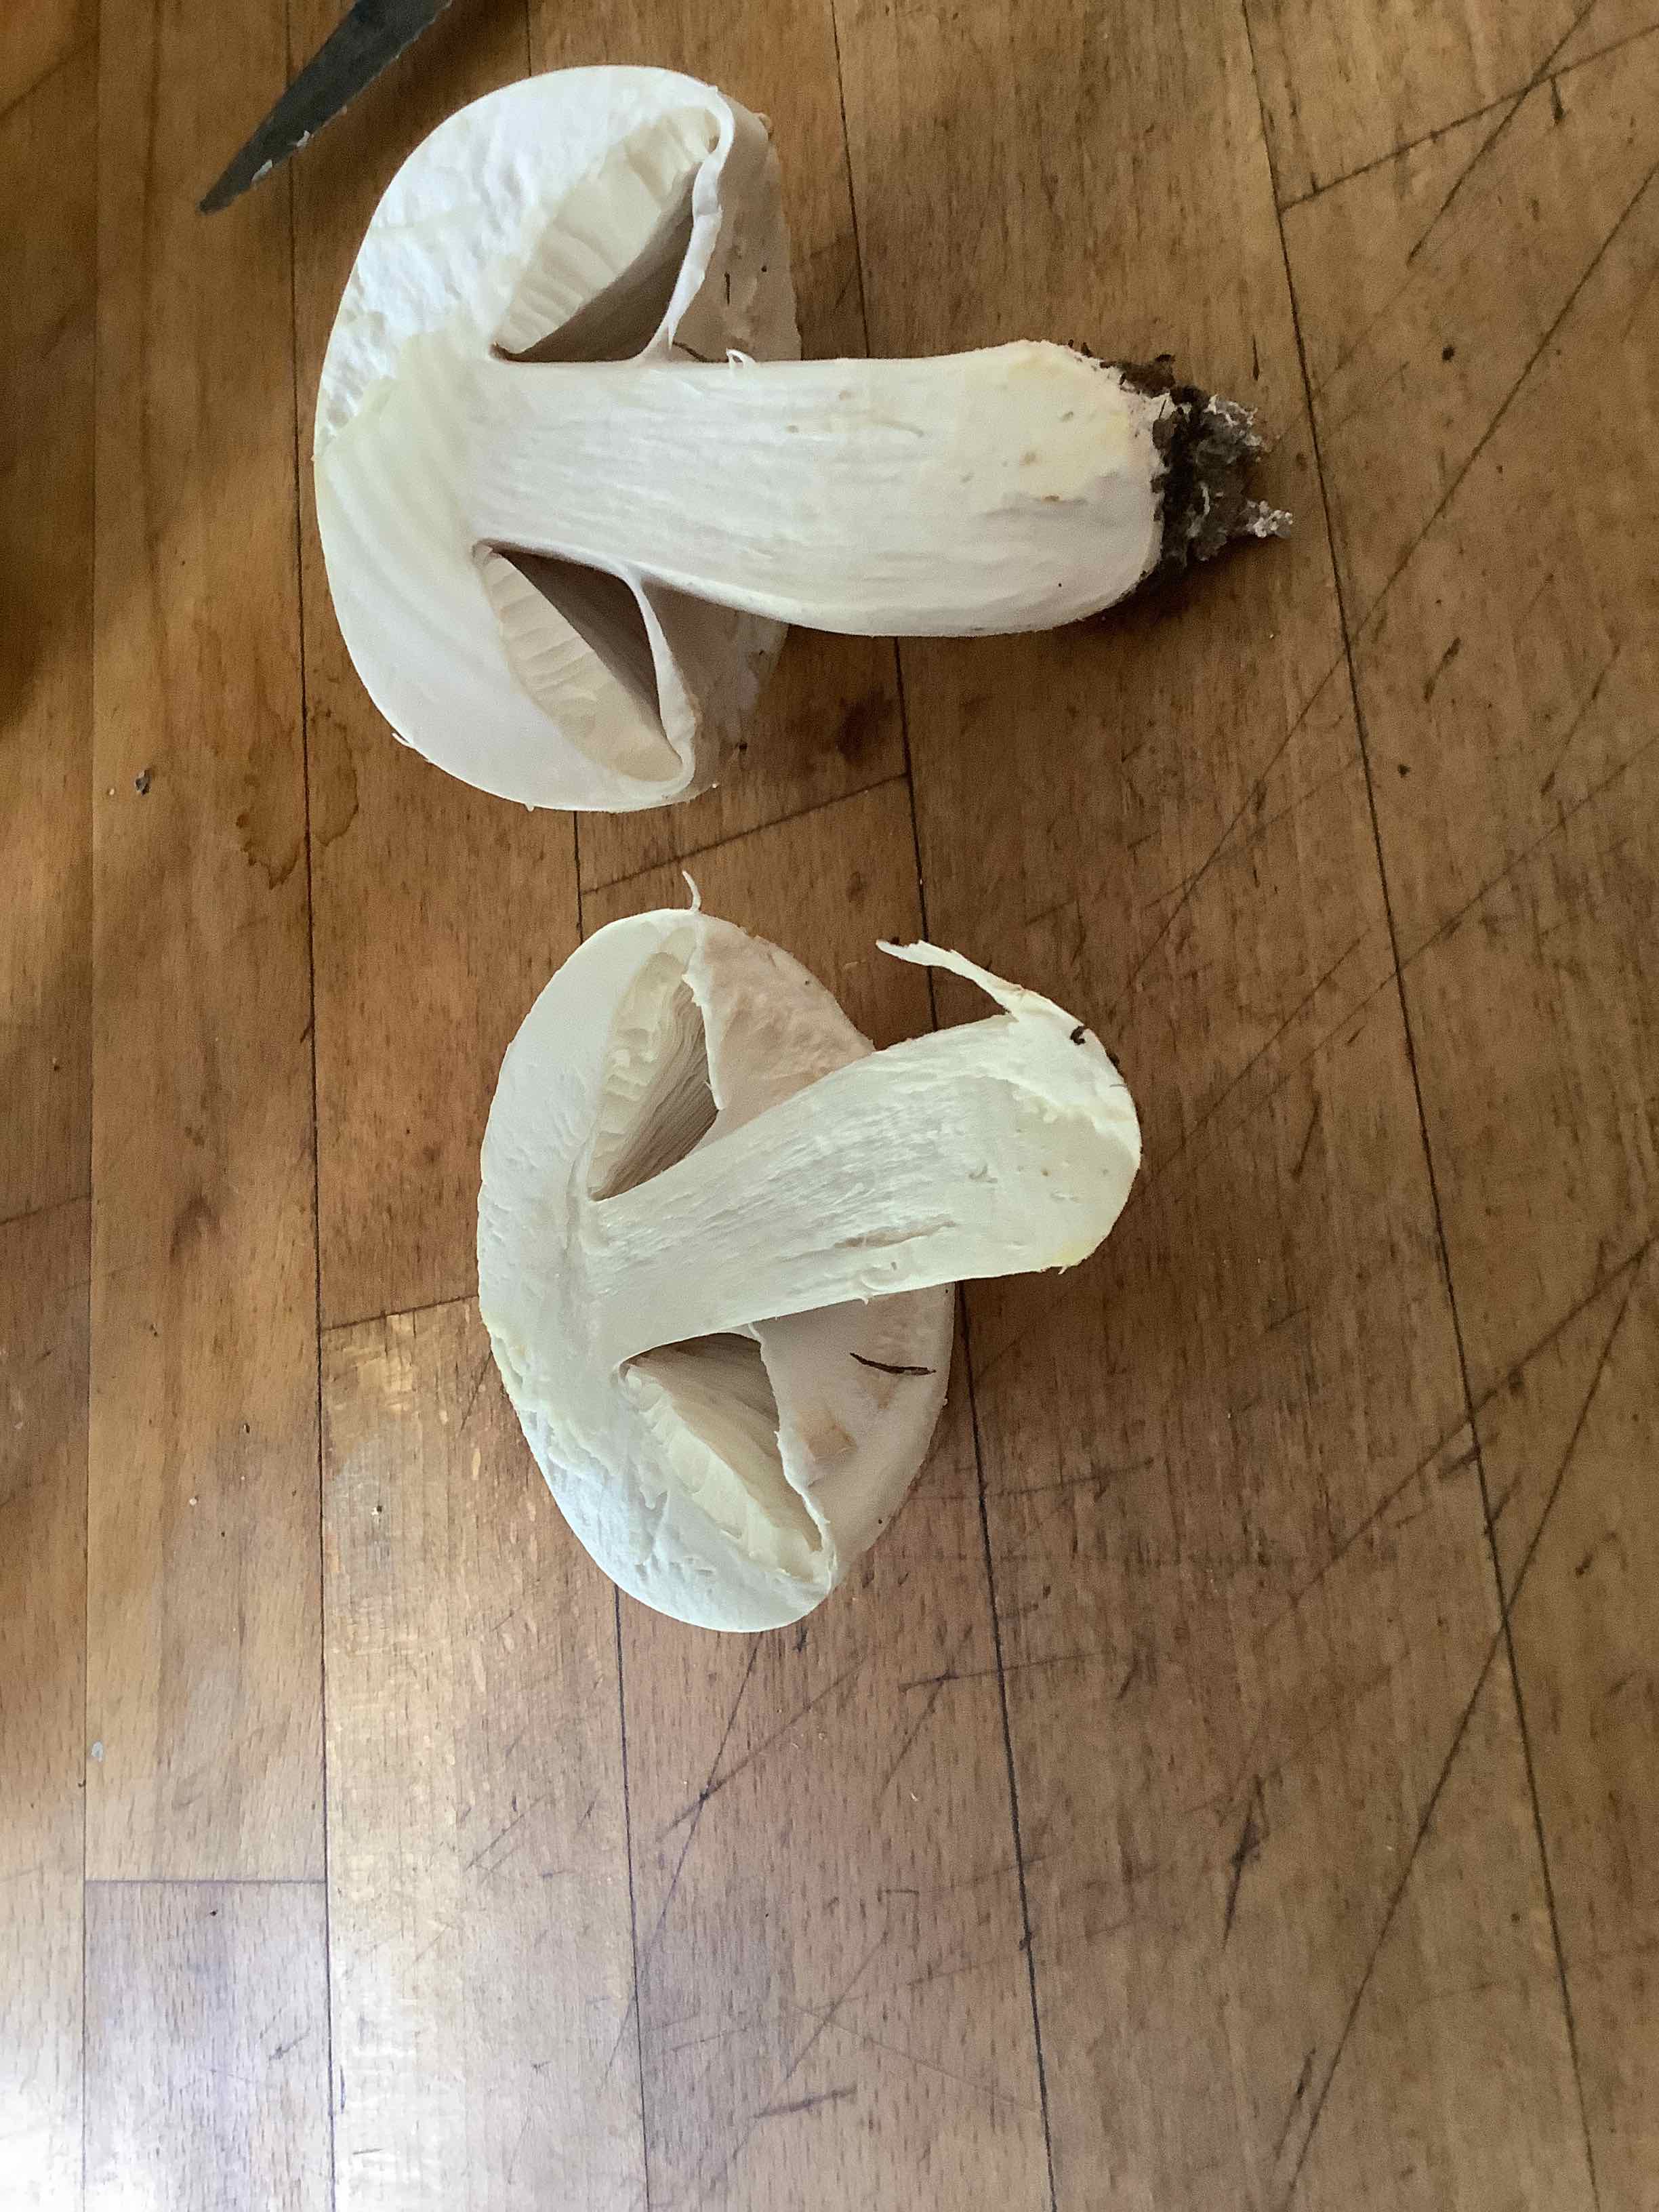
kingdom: Fungi
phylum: Basidiomycota
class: Agaricomycetes
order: Agaricales
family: Agaricaceae
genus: Agaricus
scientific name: Agaricus
